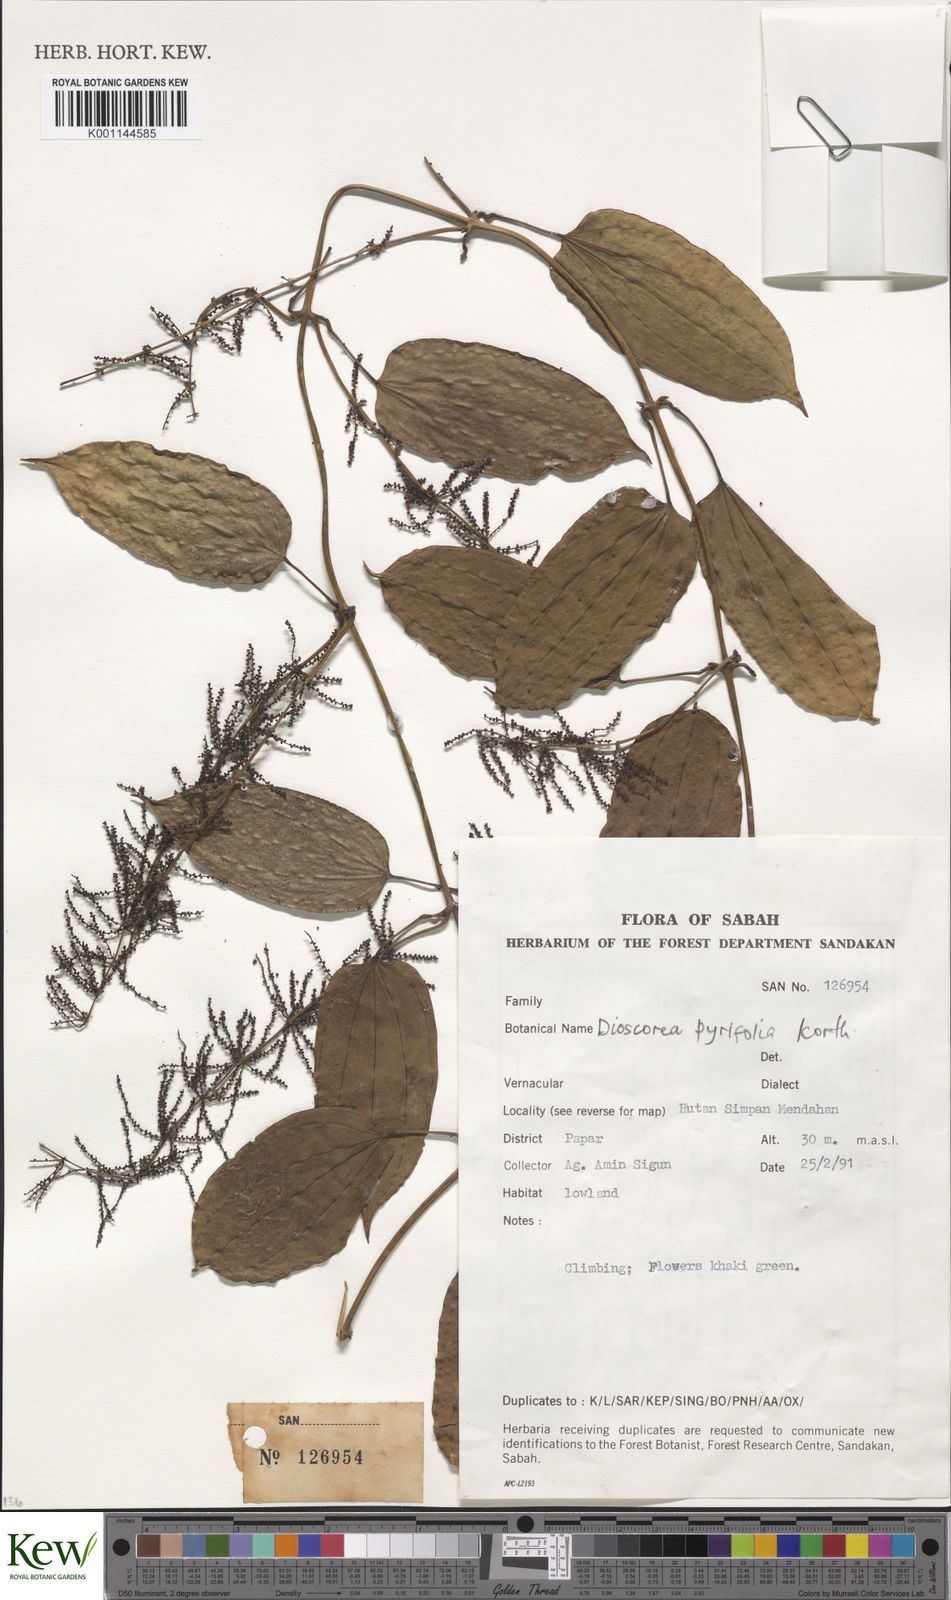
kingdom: Plantae
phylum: Tracheophyta
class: Liliopsida
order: Dioscoreales
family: Dioscoreaceae
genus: Dioscorea
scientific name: Dioscorea pyrifolia
